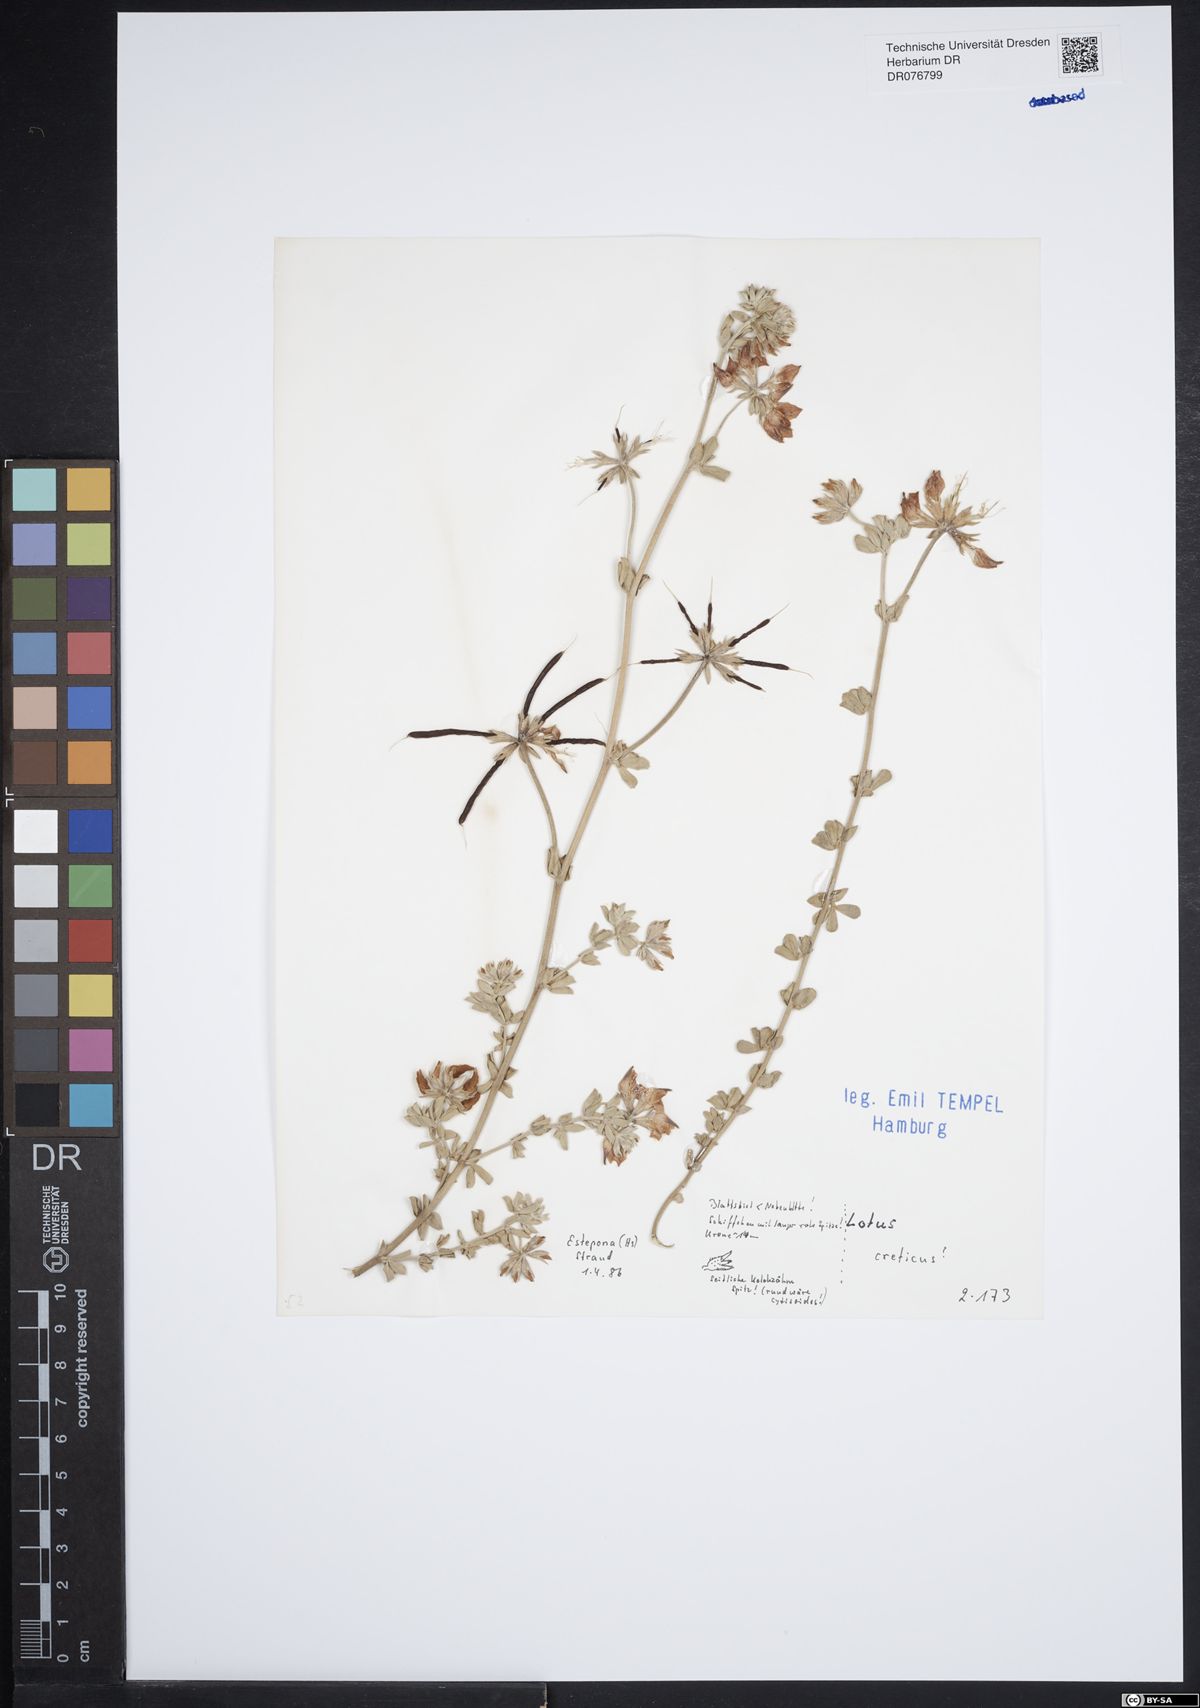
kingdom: Plantae
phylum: Tracheophyta
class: Magnoliopsida
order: Fabales
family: Fabaceae
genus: Lotus
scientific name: Lotus creticus
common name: Cretan bird's-foot trefoil
